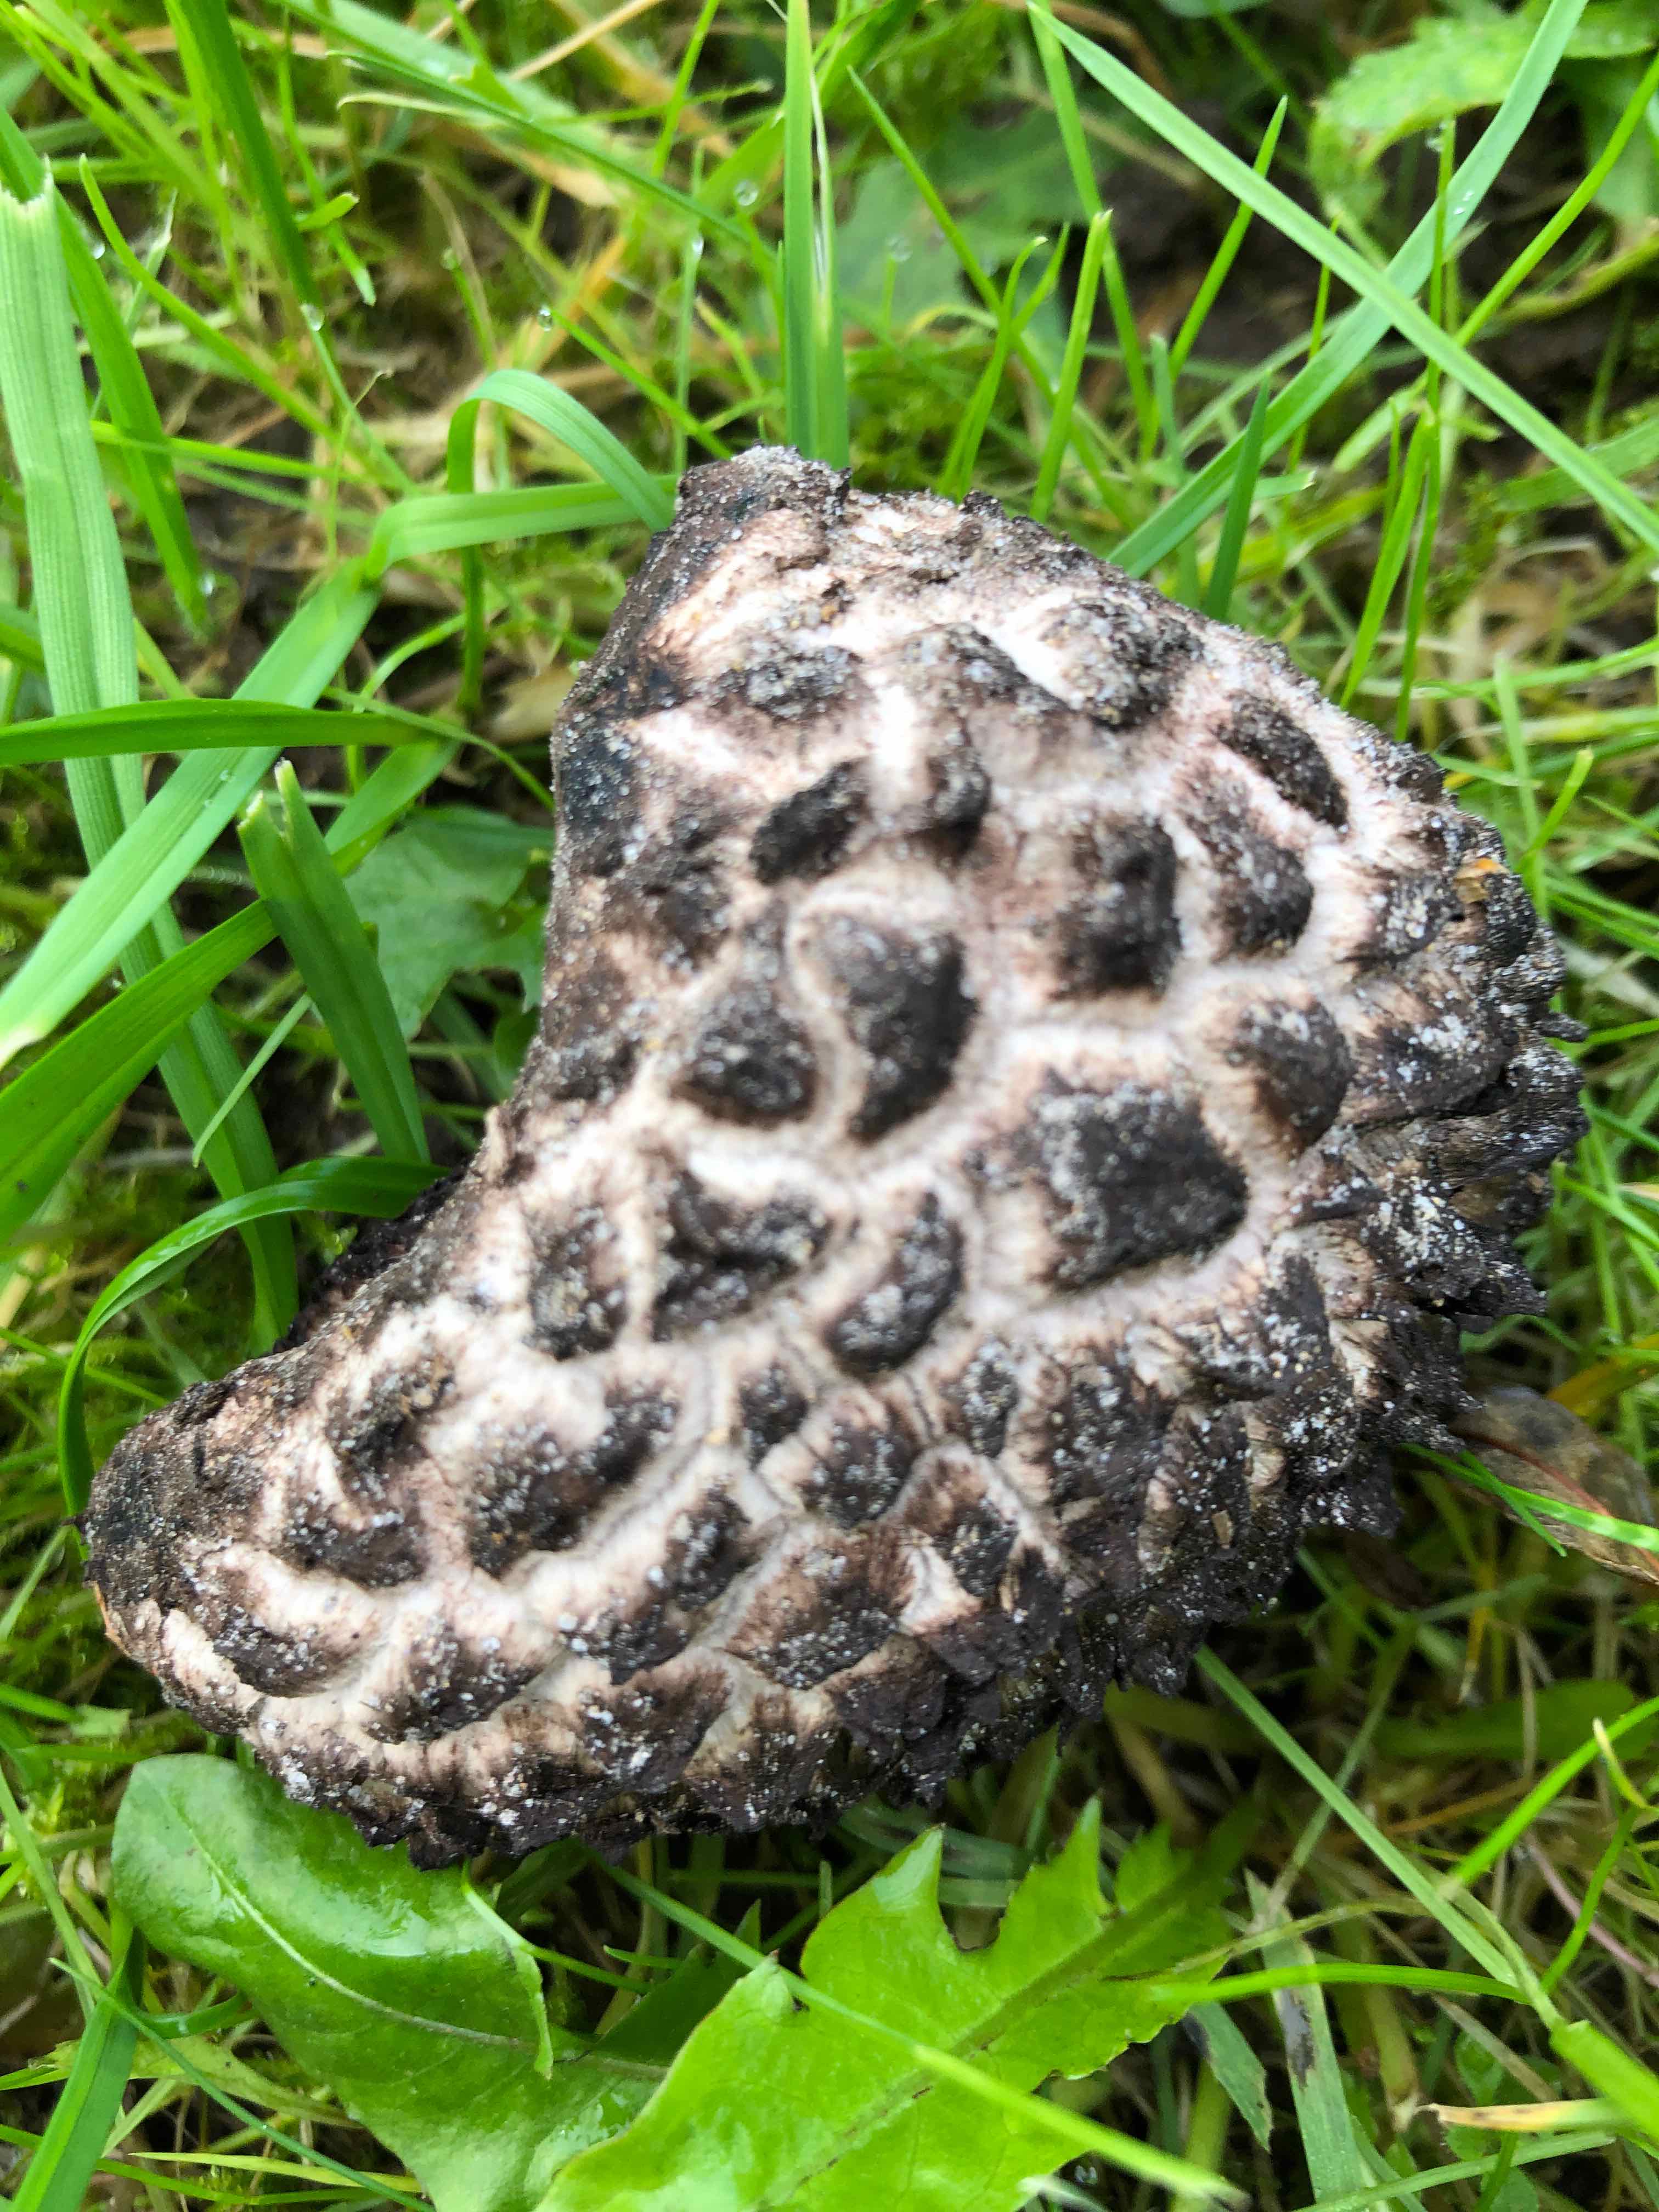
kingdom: Fungi
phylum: Basidiomycota
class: Agaricomycetes
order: Boletales
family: Boletaceae
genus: Strobilomyces
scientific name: Strobilomyces strobilaceus
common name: koglerørhat
